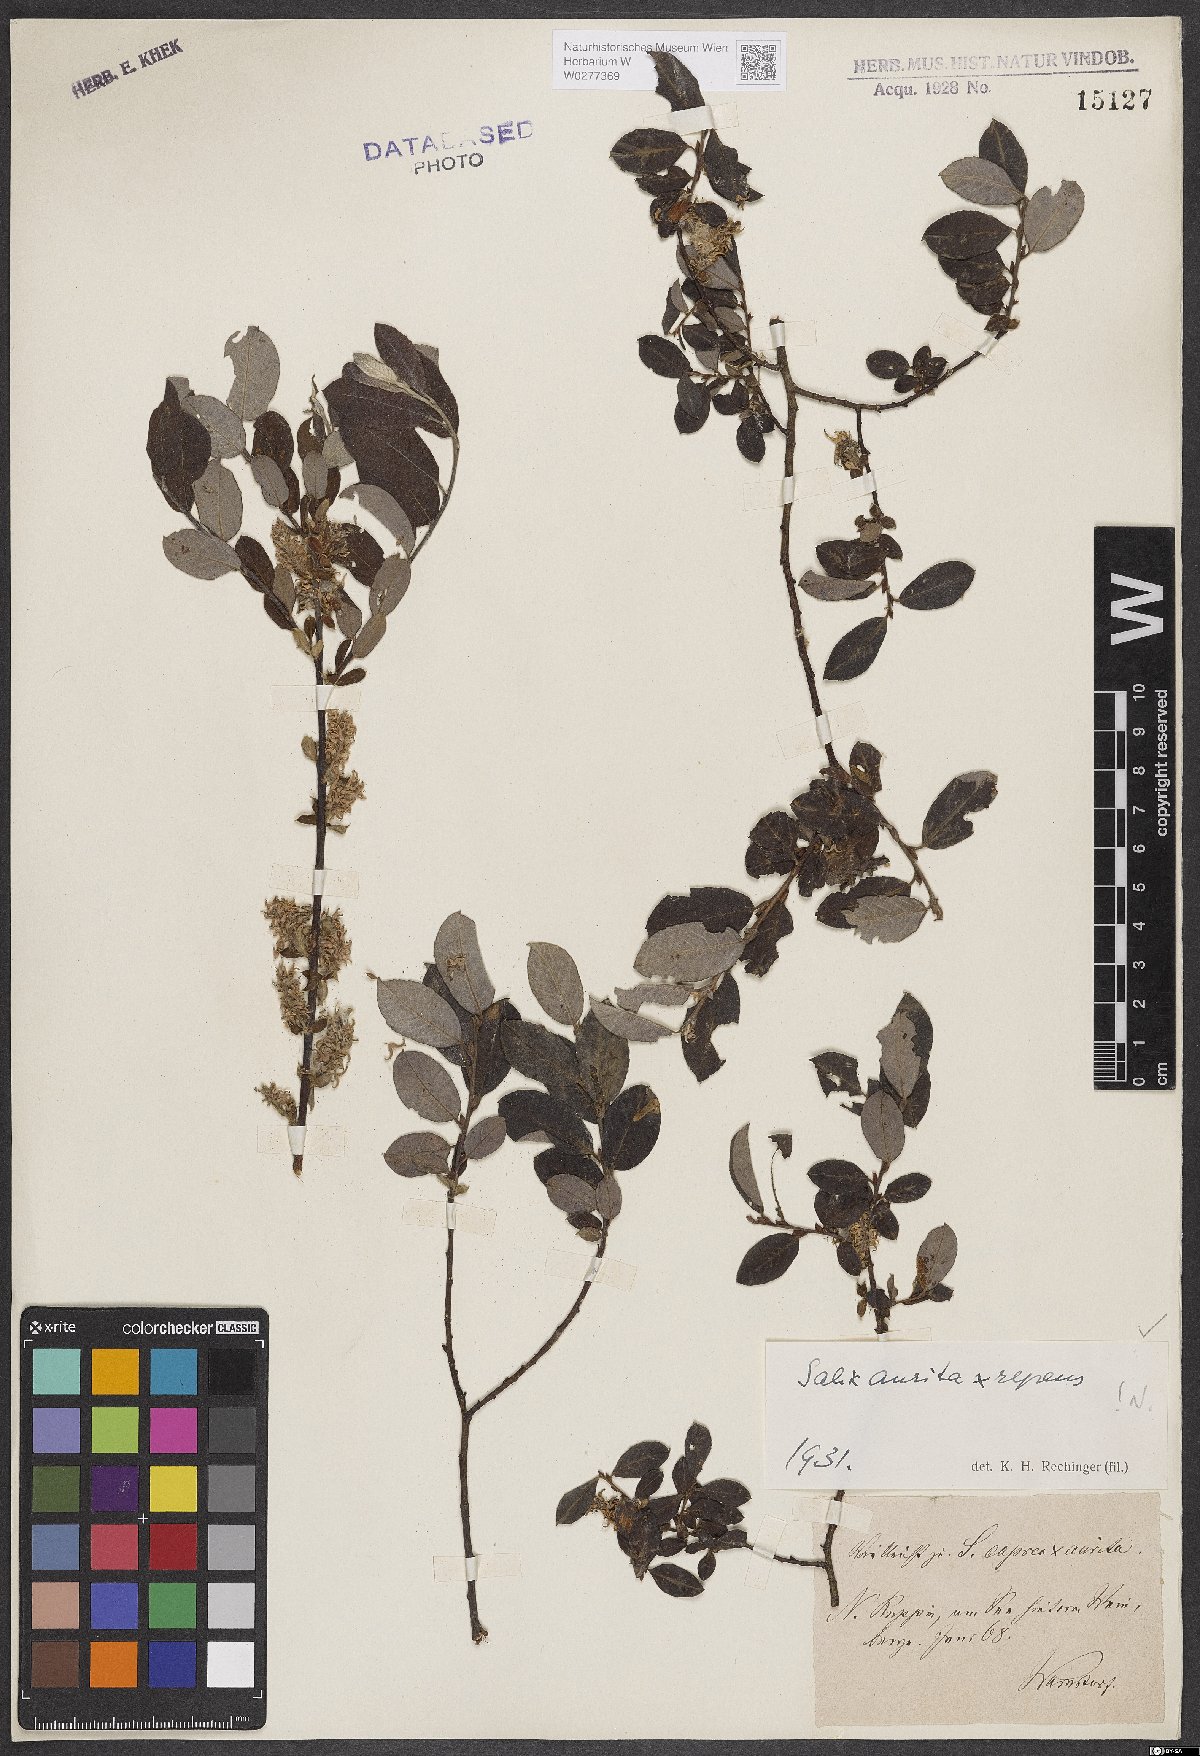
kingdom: Plantae
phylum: Tracheophyta
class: Magnoliopsida
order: Malpighiales
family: Salicaceae
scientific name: Salicaceae
